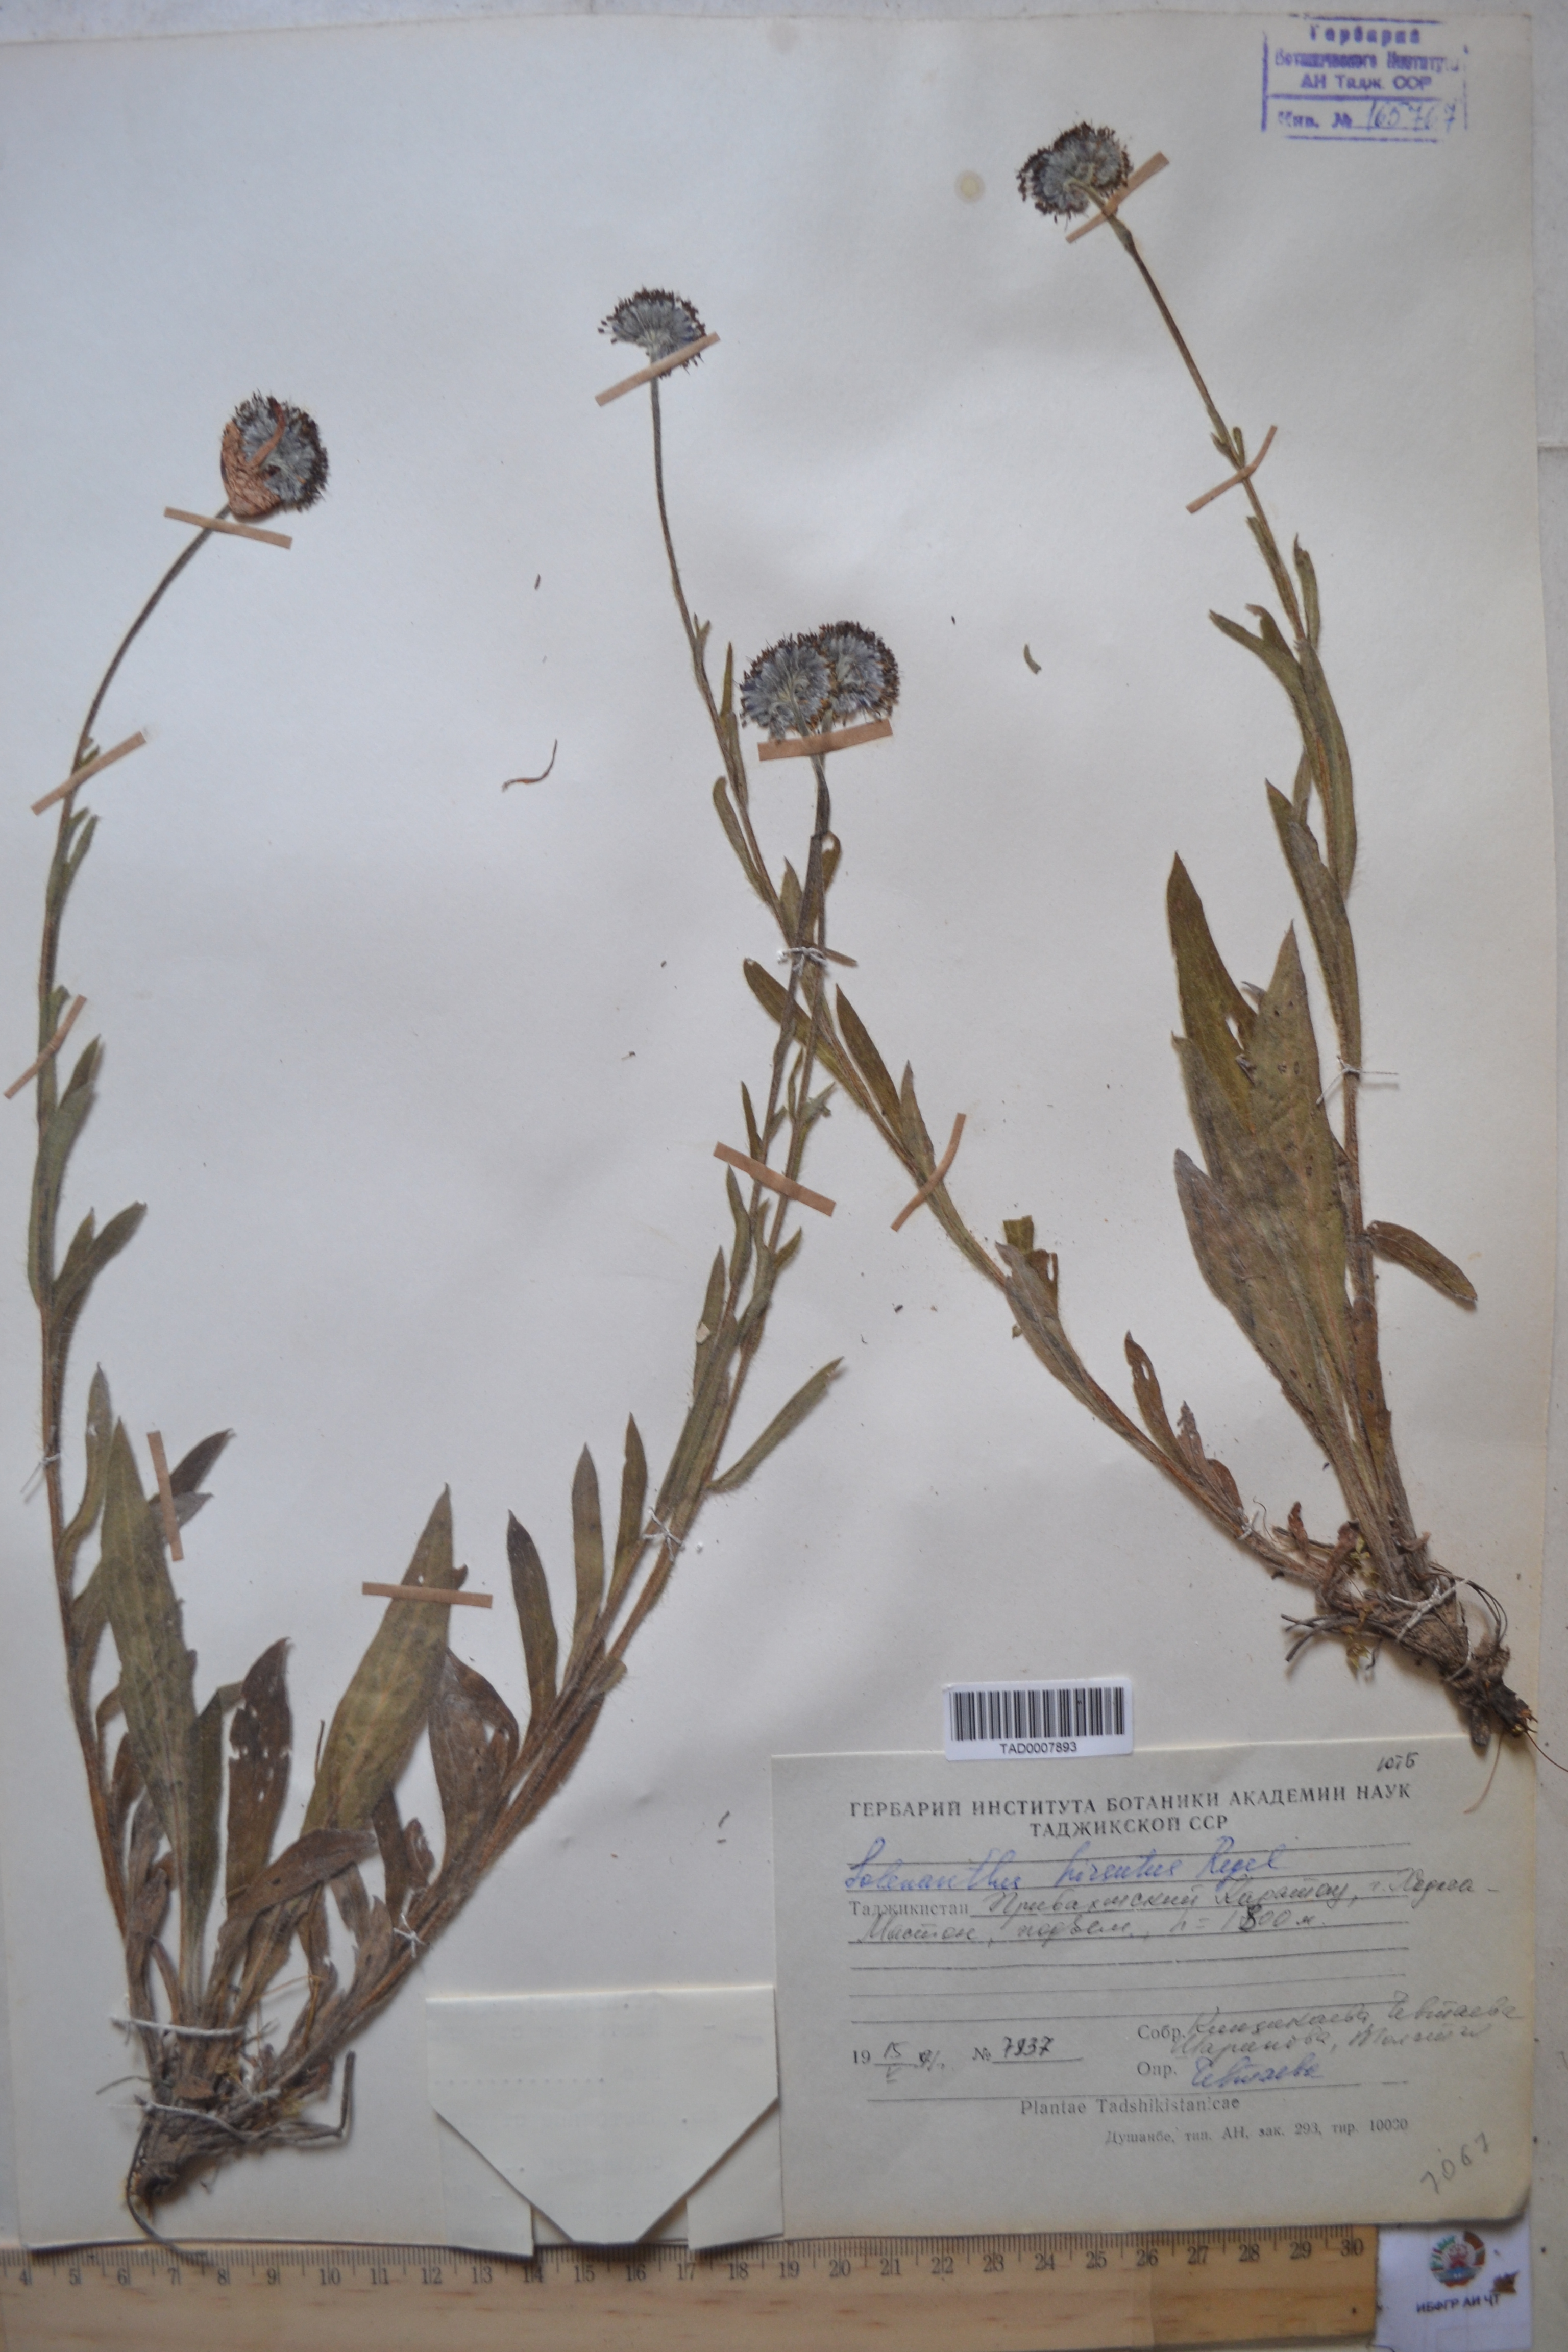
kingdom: Plantae
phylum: Tracheophyta
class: Magnoliopsida
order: Boraginales
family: Boraginaceae
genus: Solenanthus
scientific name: Solenanthus hirsutus
